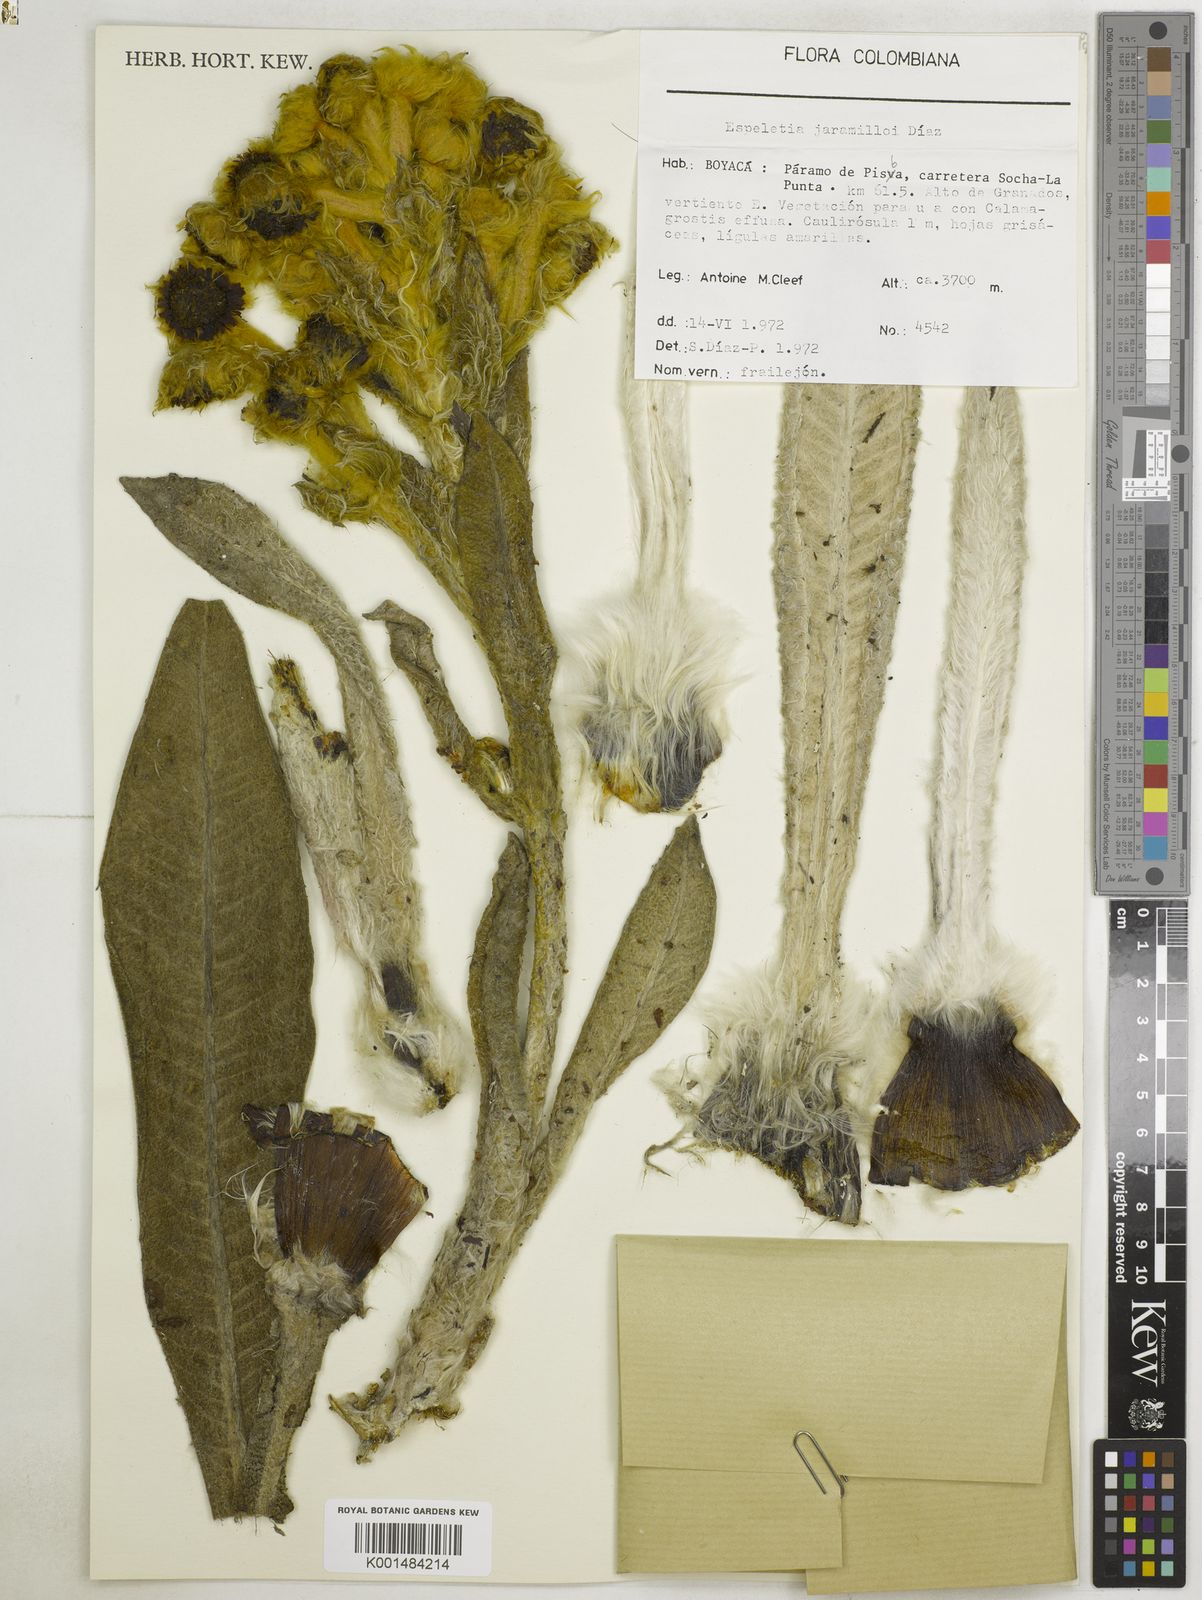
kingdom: Plantae
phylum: Tracheophyta
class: Magnoliopsida
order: Asterales
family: Asteraceae
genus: Espeletia
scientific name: Espeletia jaramilloi
